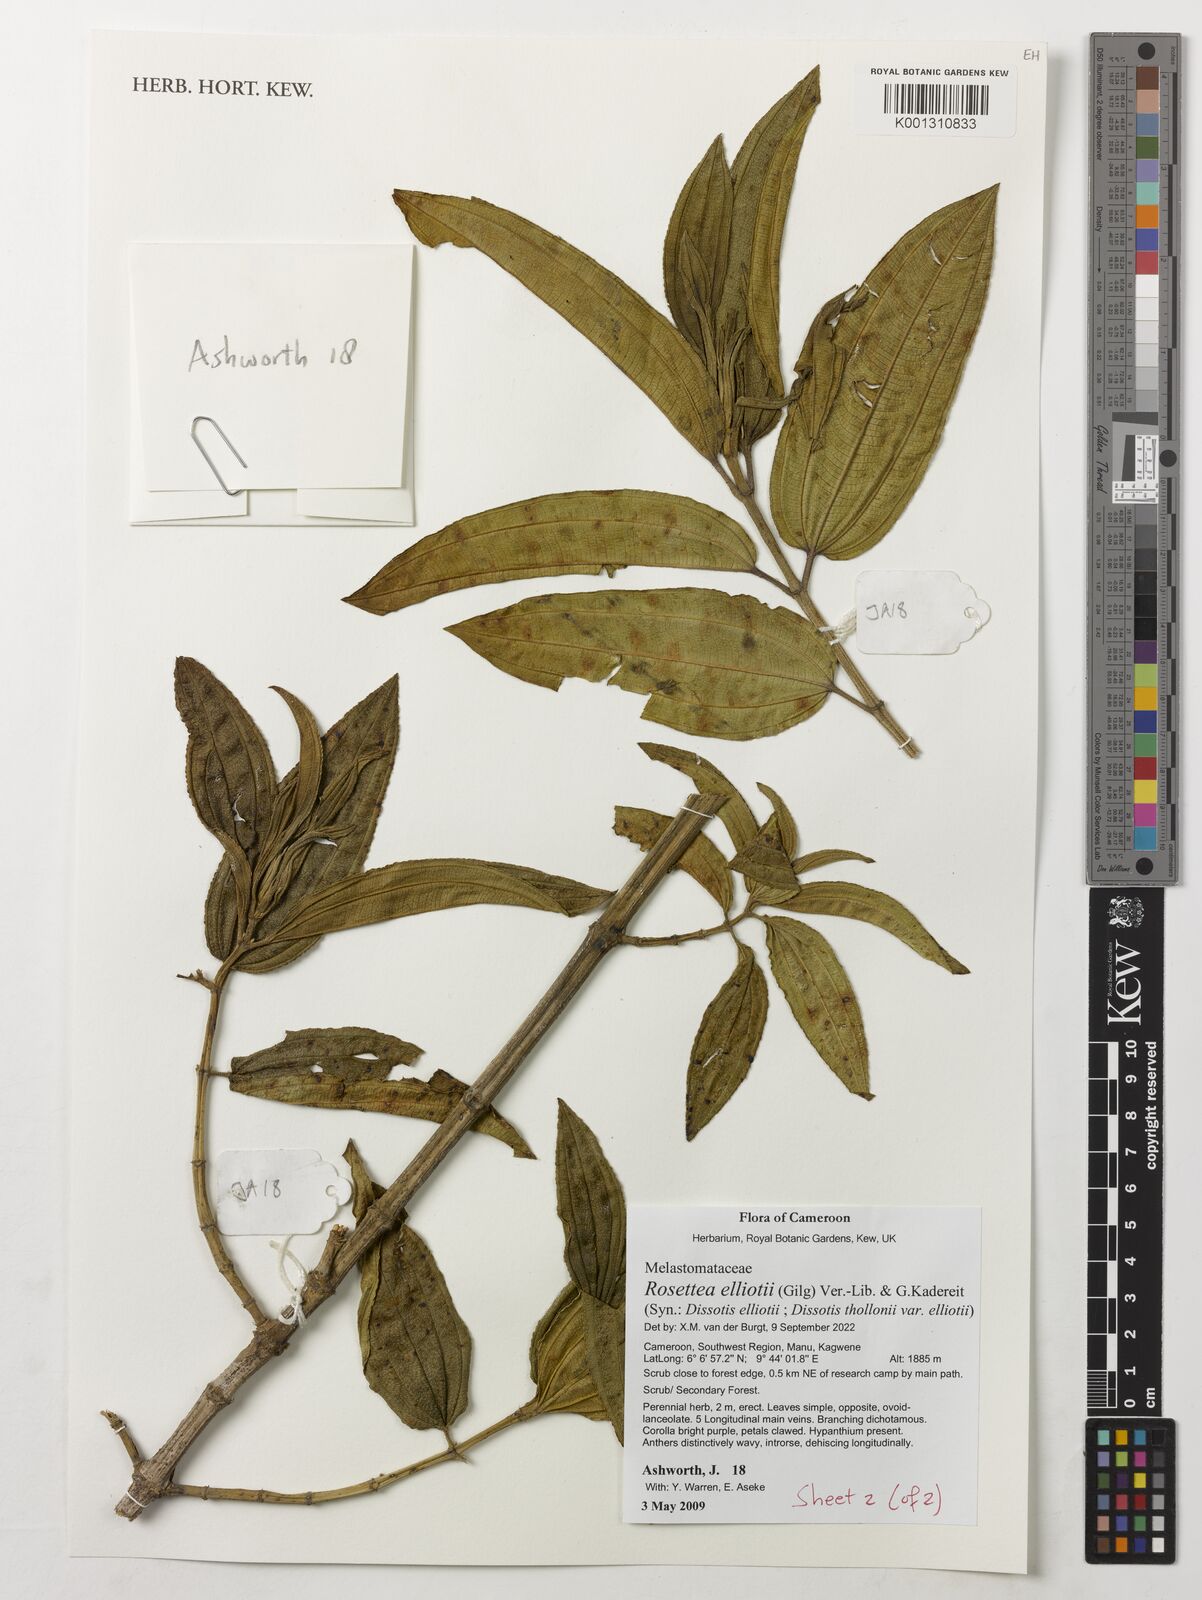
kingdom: Plantae
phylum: Tracheophyta
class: Magnoliopsida
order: Myrtales
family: Melastomataceae
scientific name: Melastomataceae
